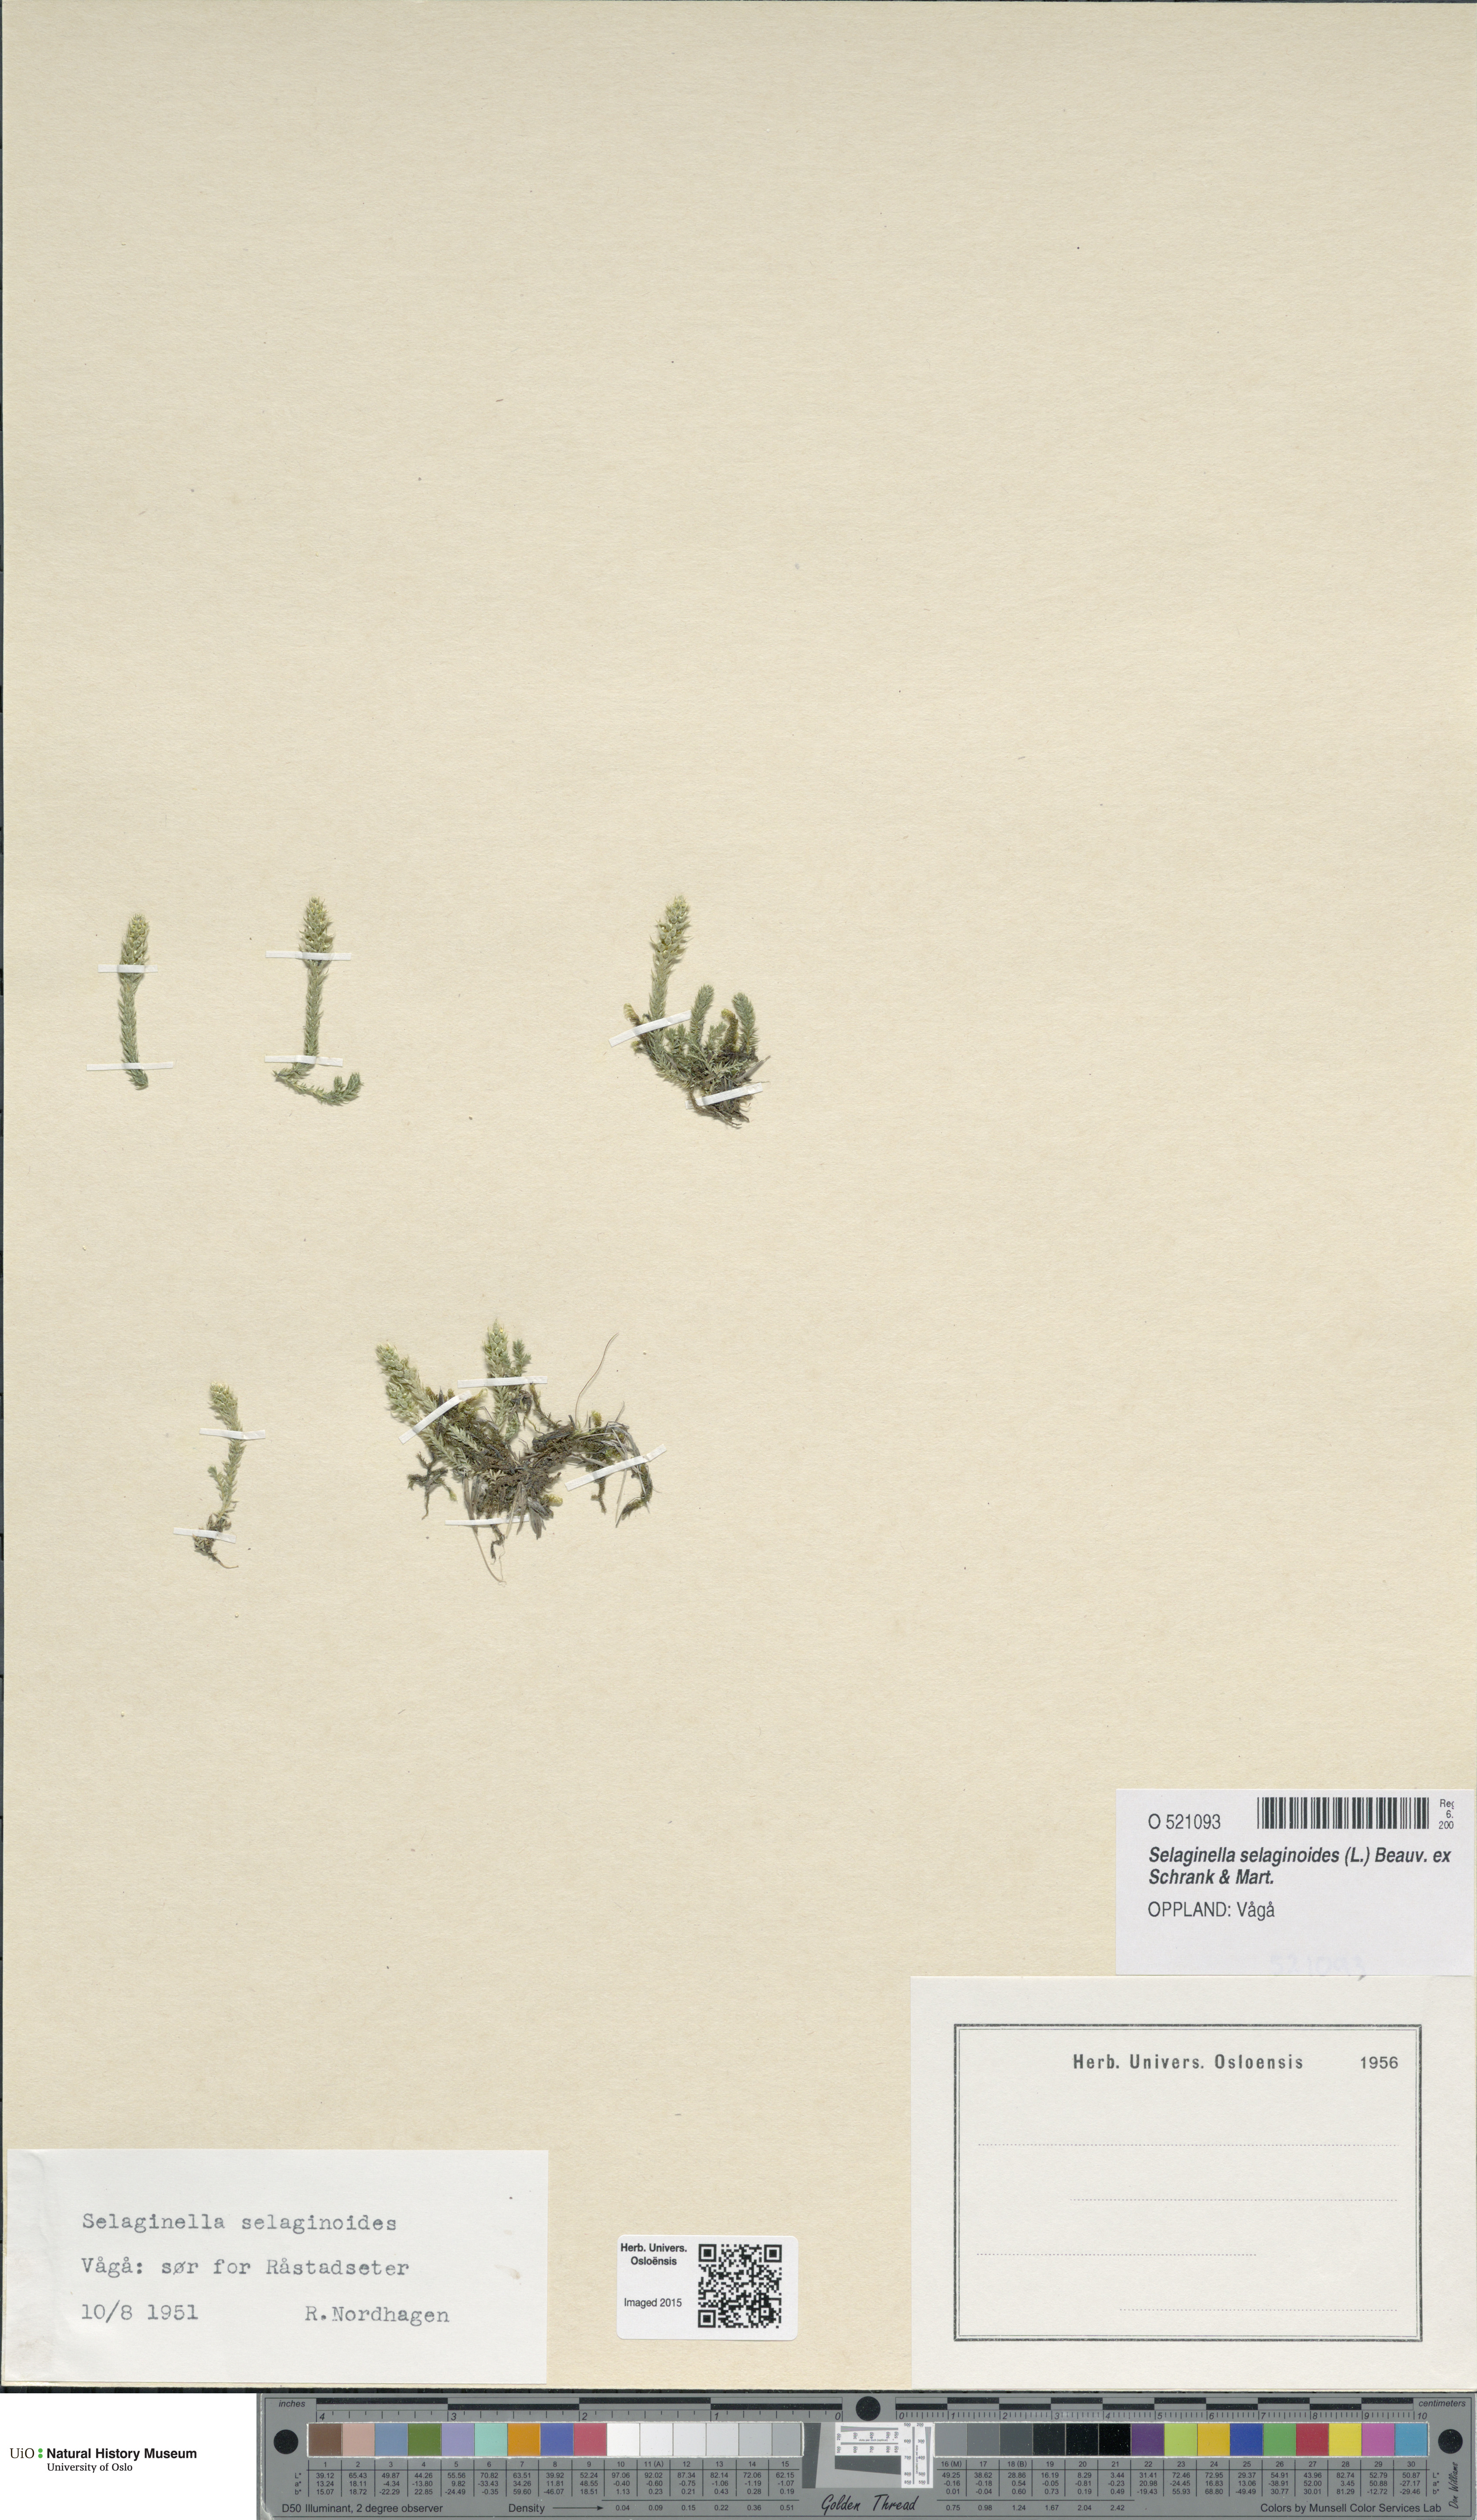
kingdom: Plantae
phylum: Tracheophyta
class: Lycopodiopsida
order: Selaginellales
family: Selaginellaceae
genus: Selaginella
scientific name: Selaginella selaginoides
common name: Prickly mountain-moss
